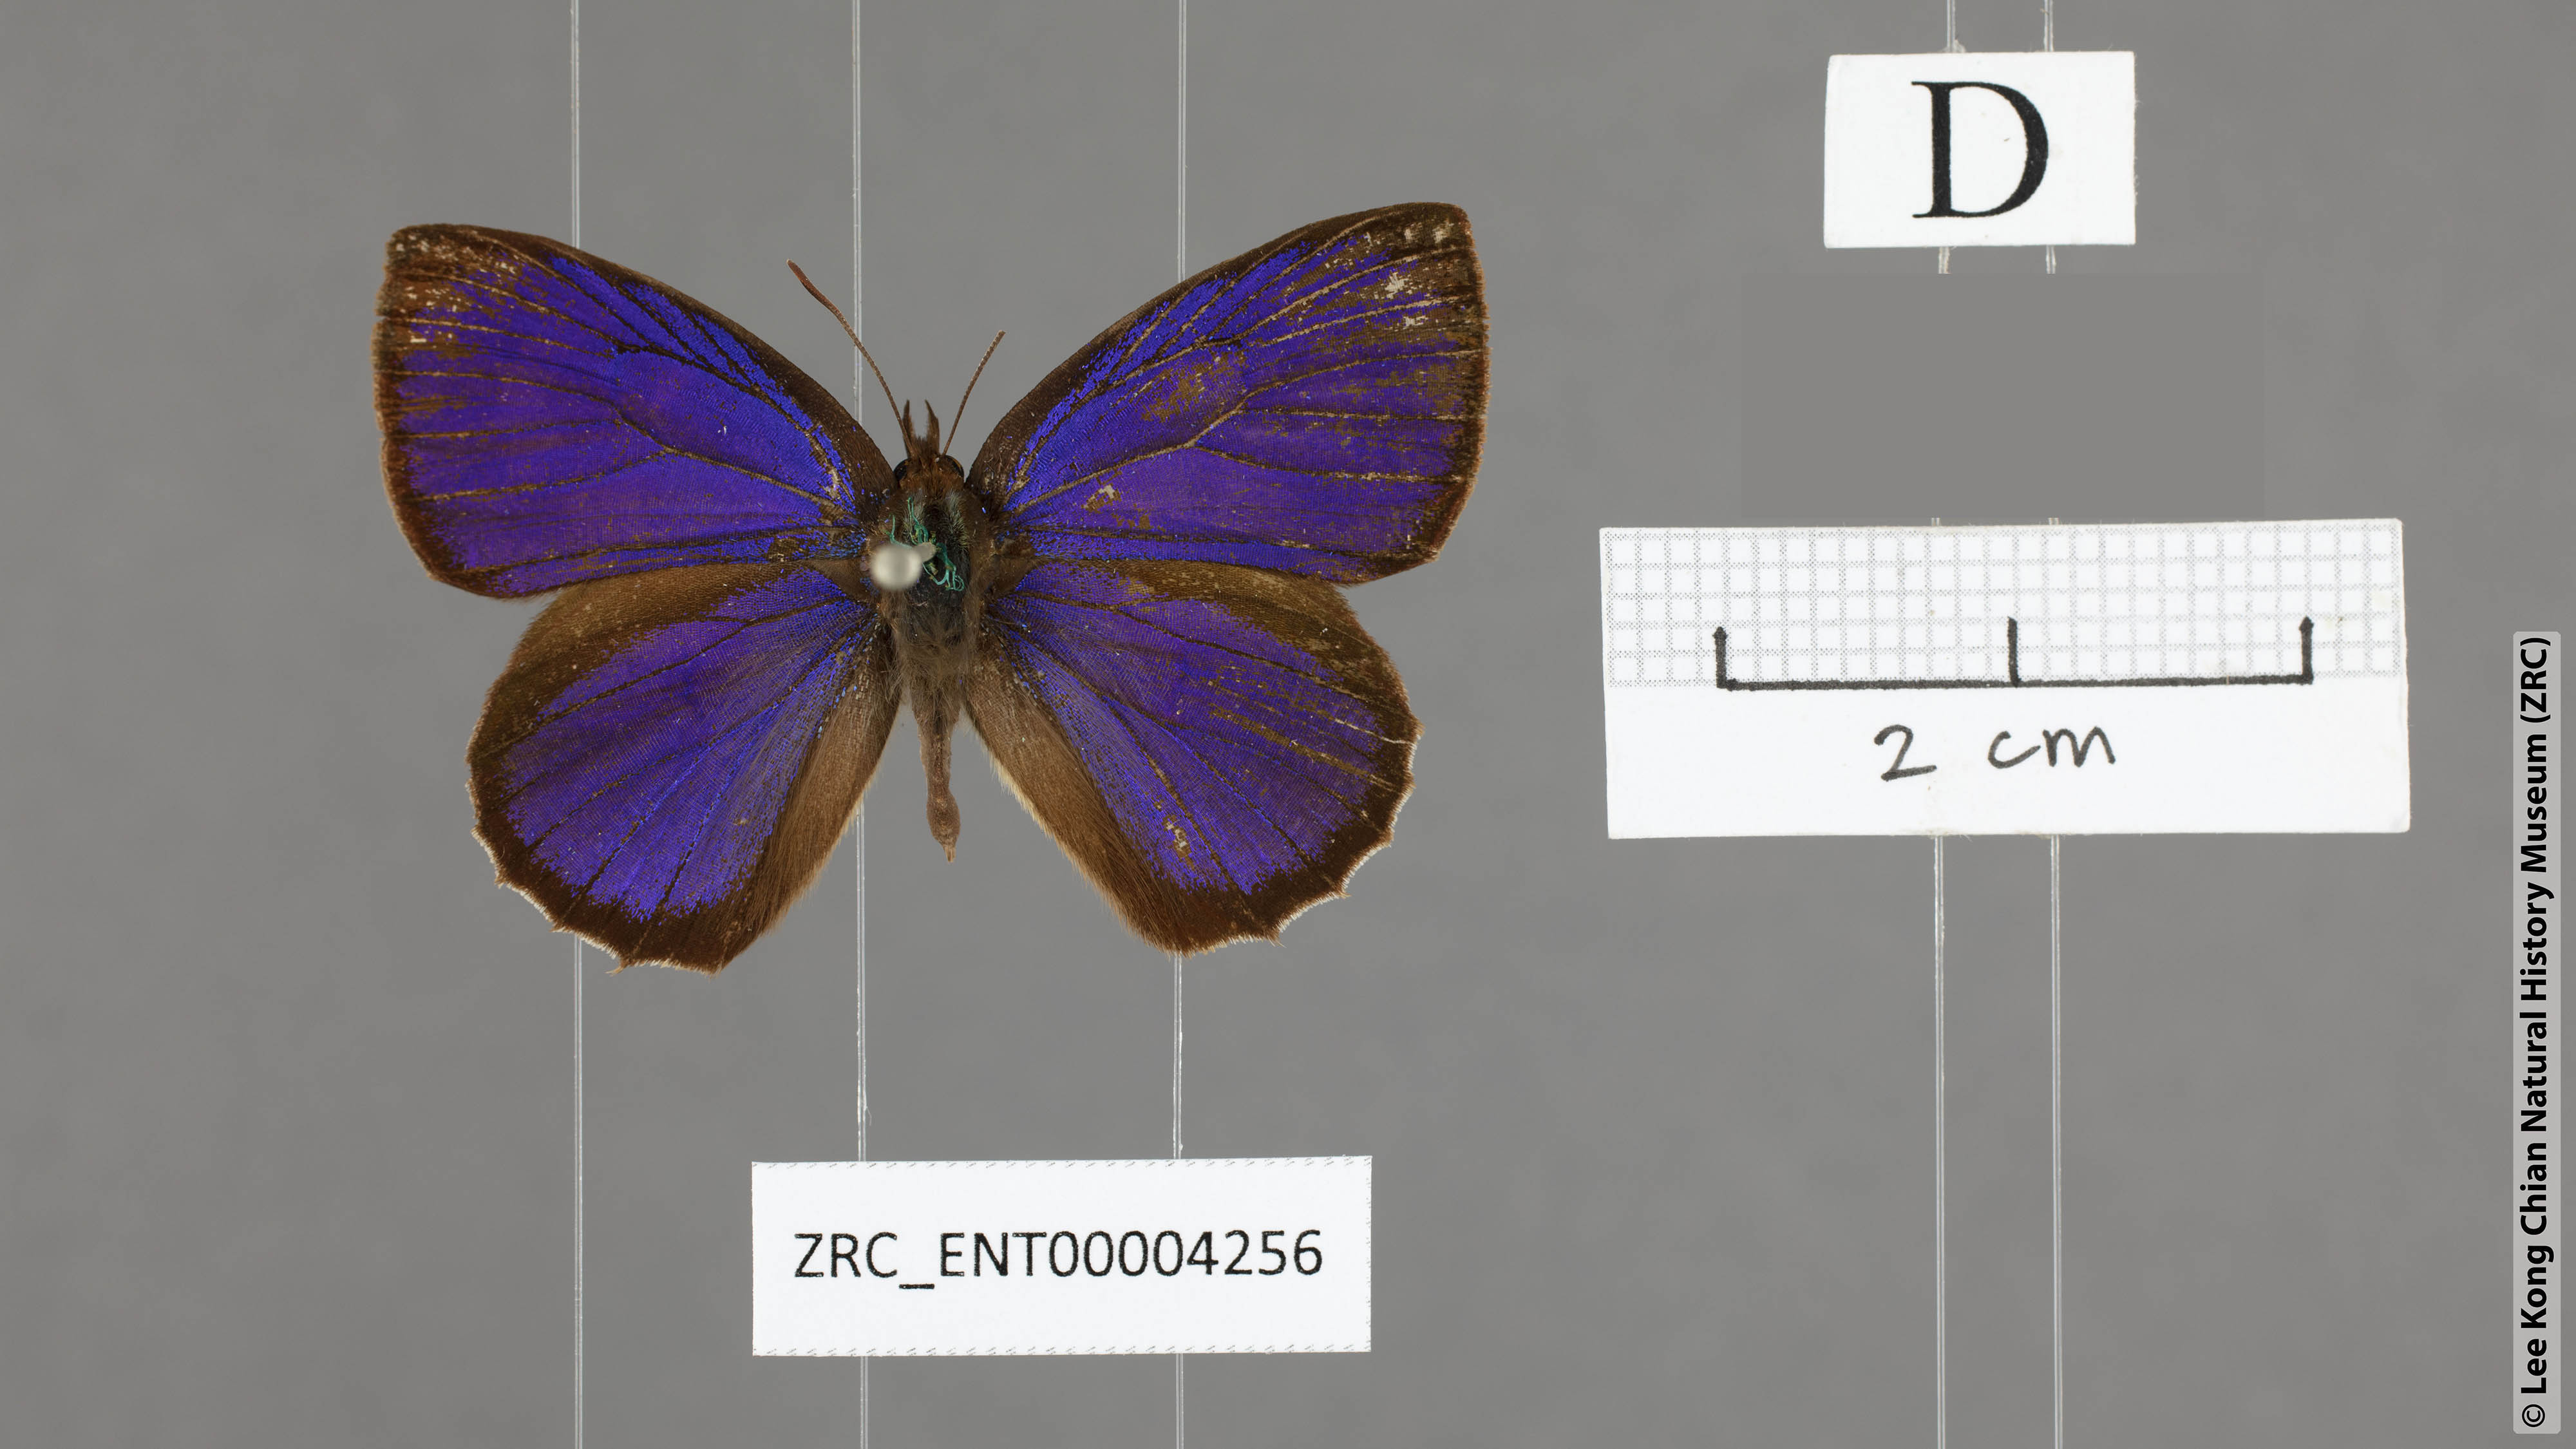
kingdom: Animalia
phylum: Arthropoda
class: Insecta
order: Lepidoptera
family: Lycaenidae
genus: Flos
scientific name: Flos
